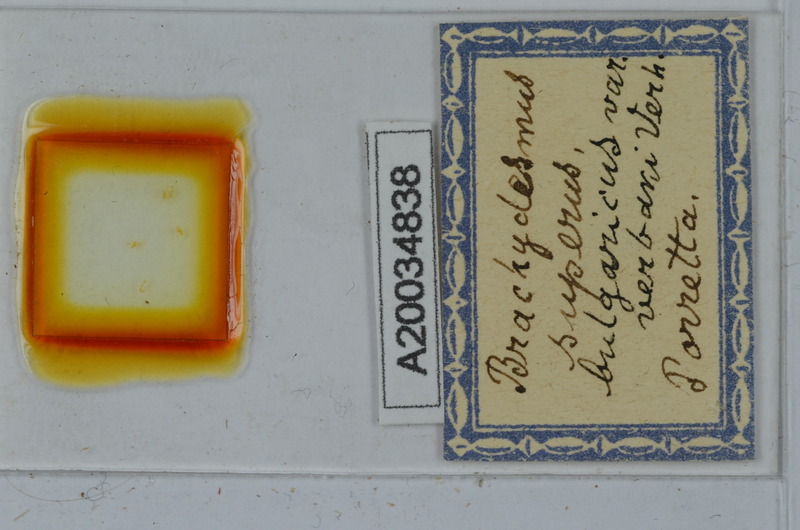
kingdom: Animalia
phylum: Arthropoda
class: Diplopoda
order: Polydesmida
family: Polydesmidae
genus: Brachydesmus
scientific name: Brachydesmus superus
